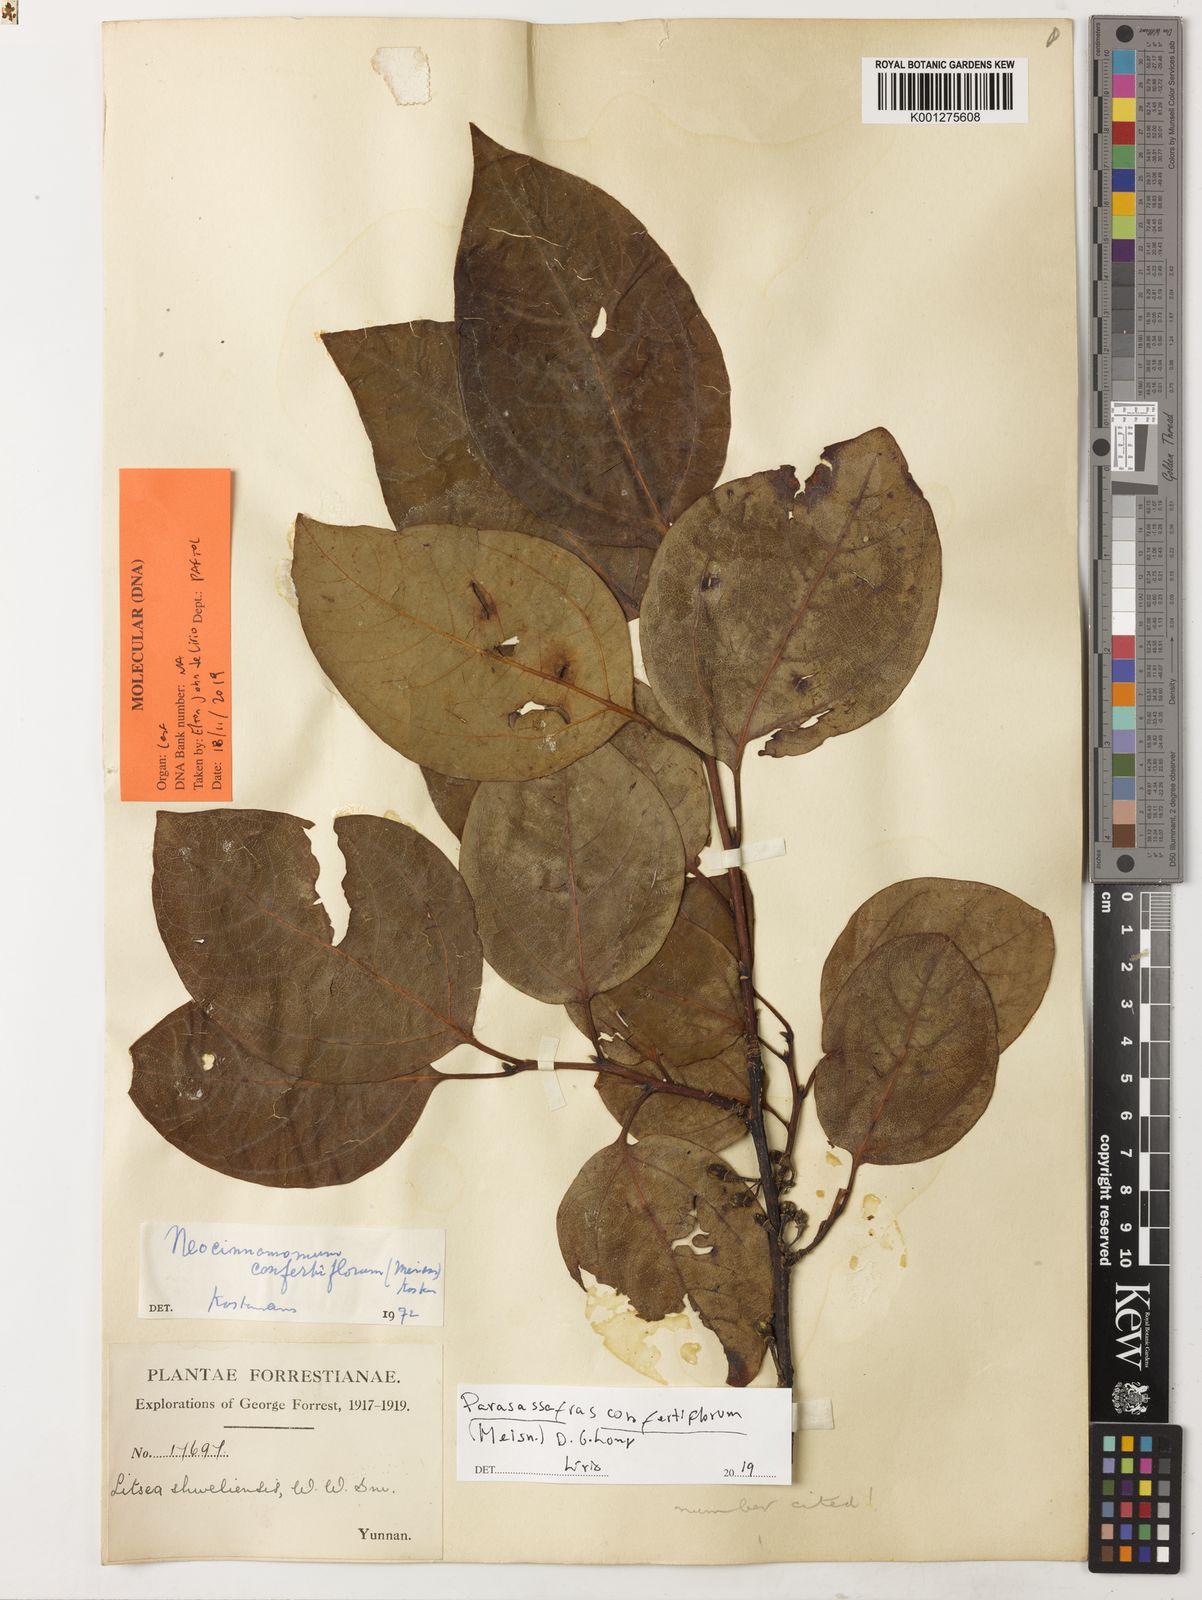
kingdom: Plantae
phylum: Tracheophyta
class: Magnoliopsida
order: Laurales
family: Lauraceae
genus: Parasassafras
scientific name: Parasassafras confertiflora
